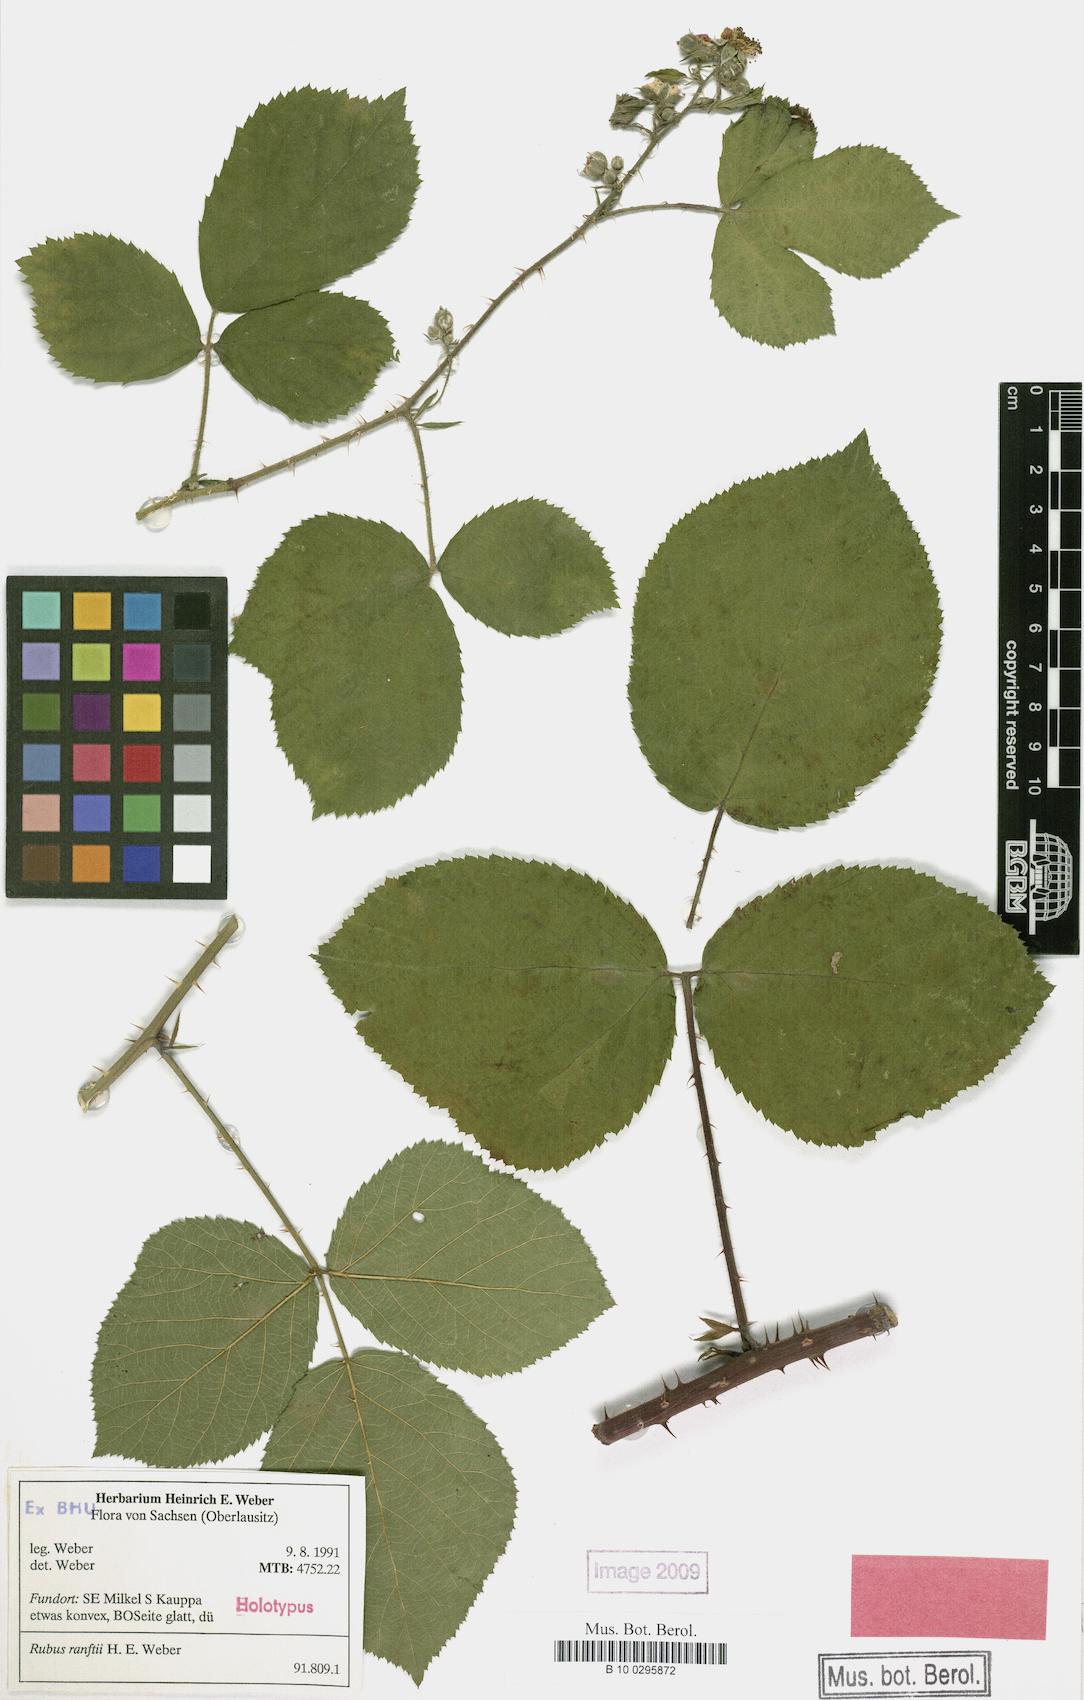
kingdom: Plantae
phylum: Tracheophyta
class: Magnoliopsida
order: Rosales
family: Rosaceae
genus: Rubus
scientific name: Rubus ranftii
